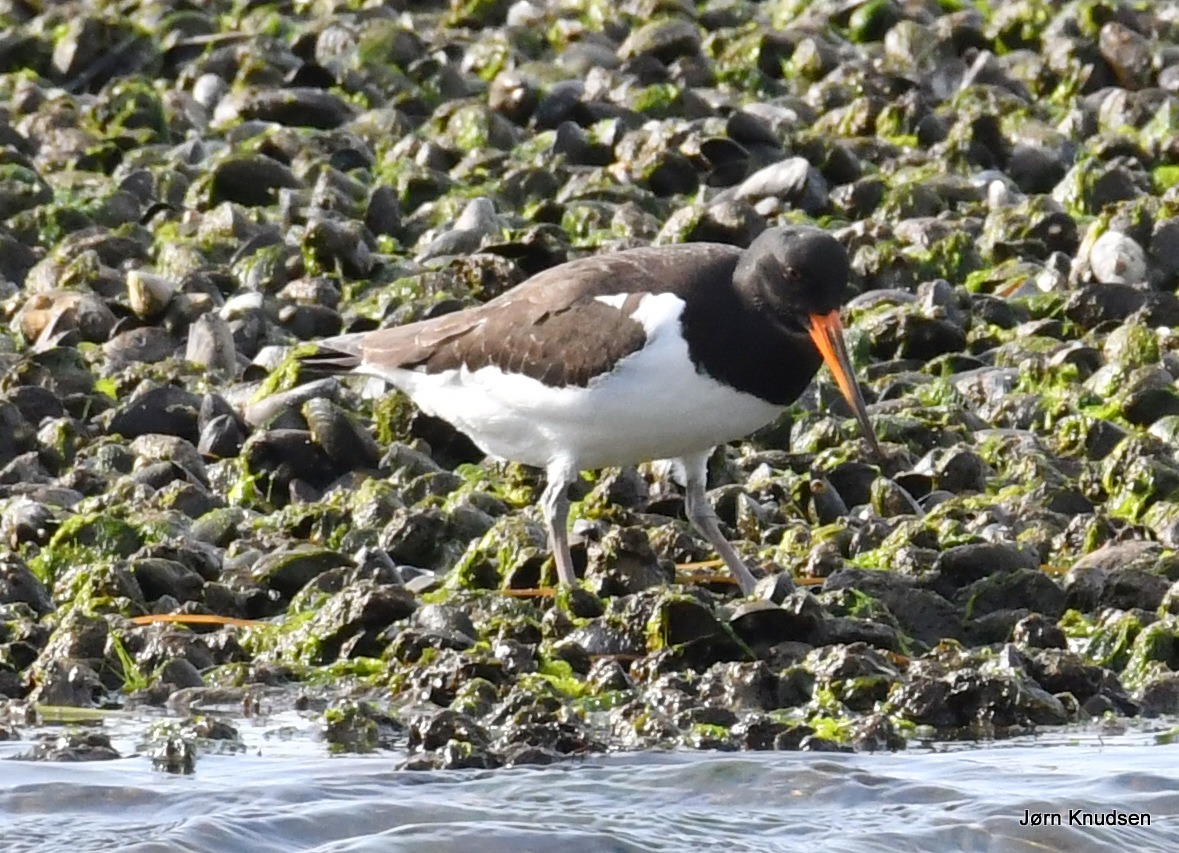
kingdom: Animalia
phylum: Chordata
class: Aves
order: Charadriiformes
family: Haematopodidae
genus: Haematopus
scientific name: Haematopus ostralegus
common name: Strandskade
